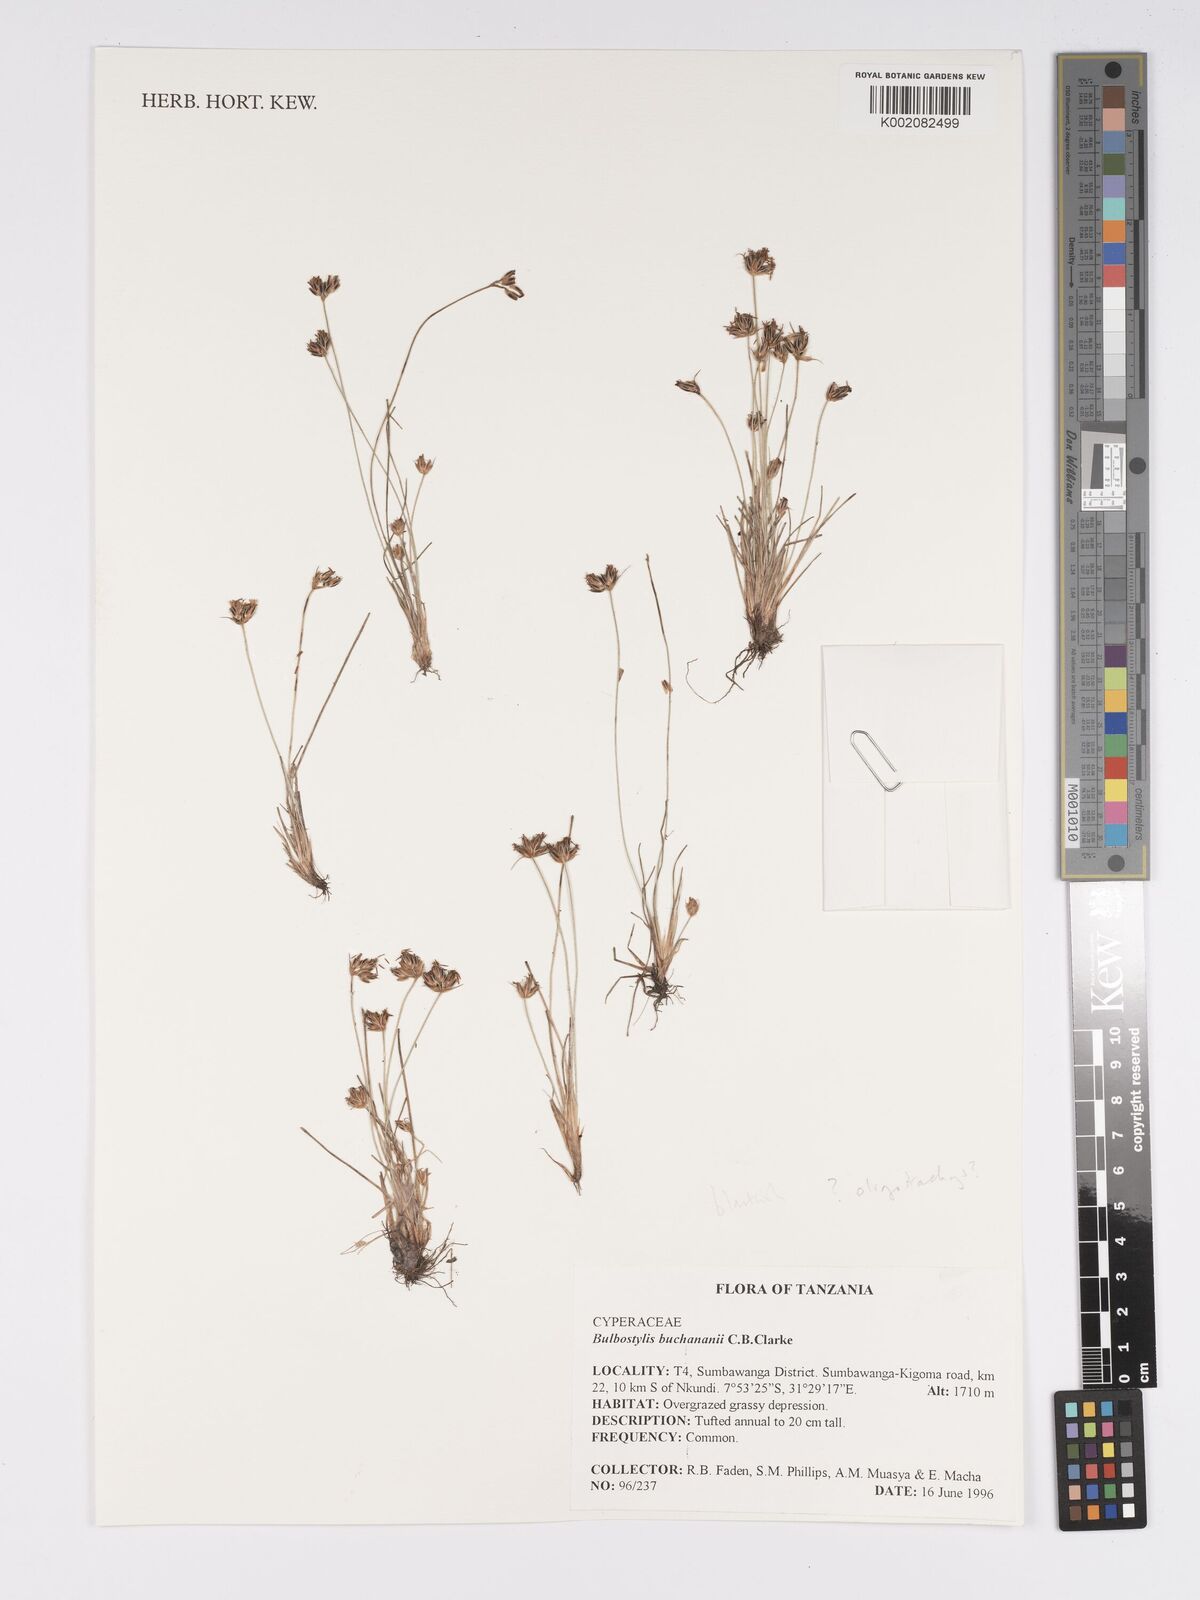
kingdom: Plantae
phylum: Tracheophyta
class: Liliopsida
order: Poales
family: Cyperaceae
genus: Bulbostylis
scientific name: Bulbostylis oligostachys
